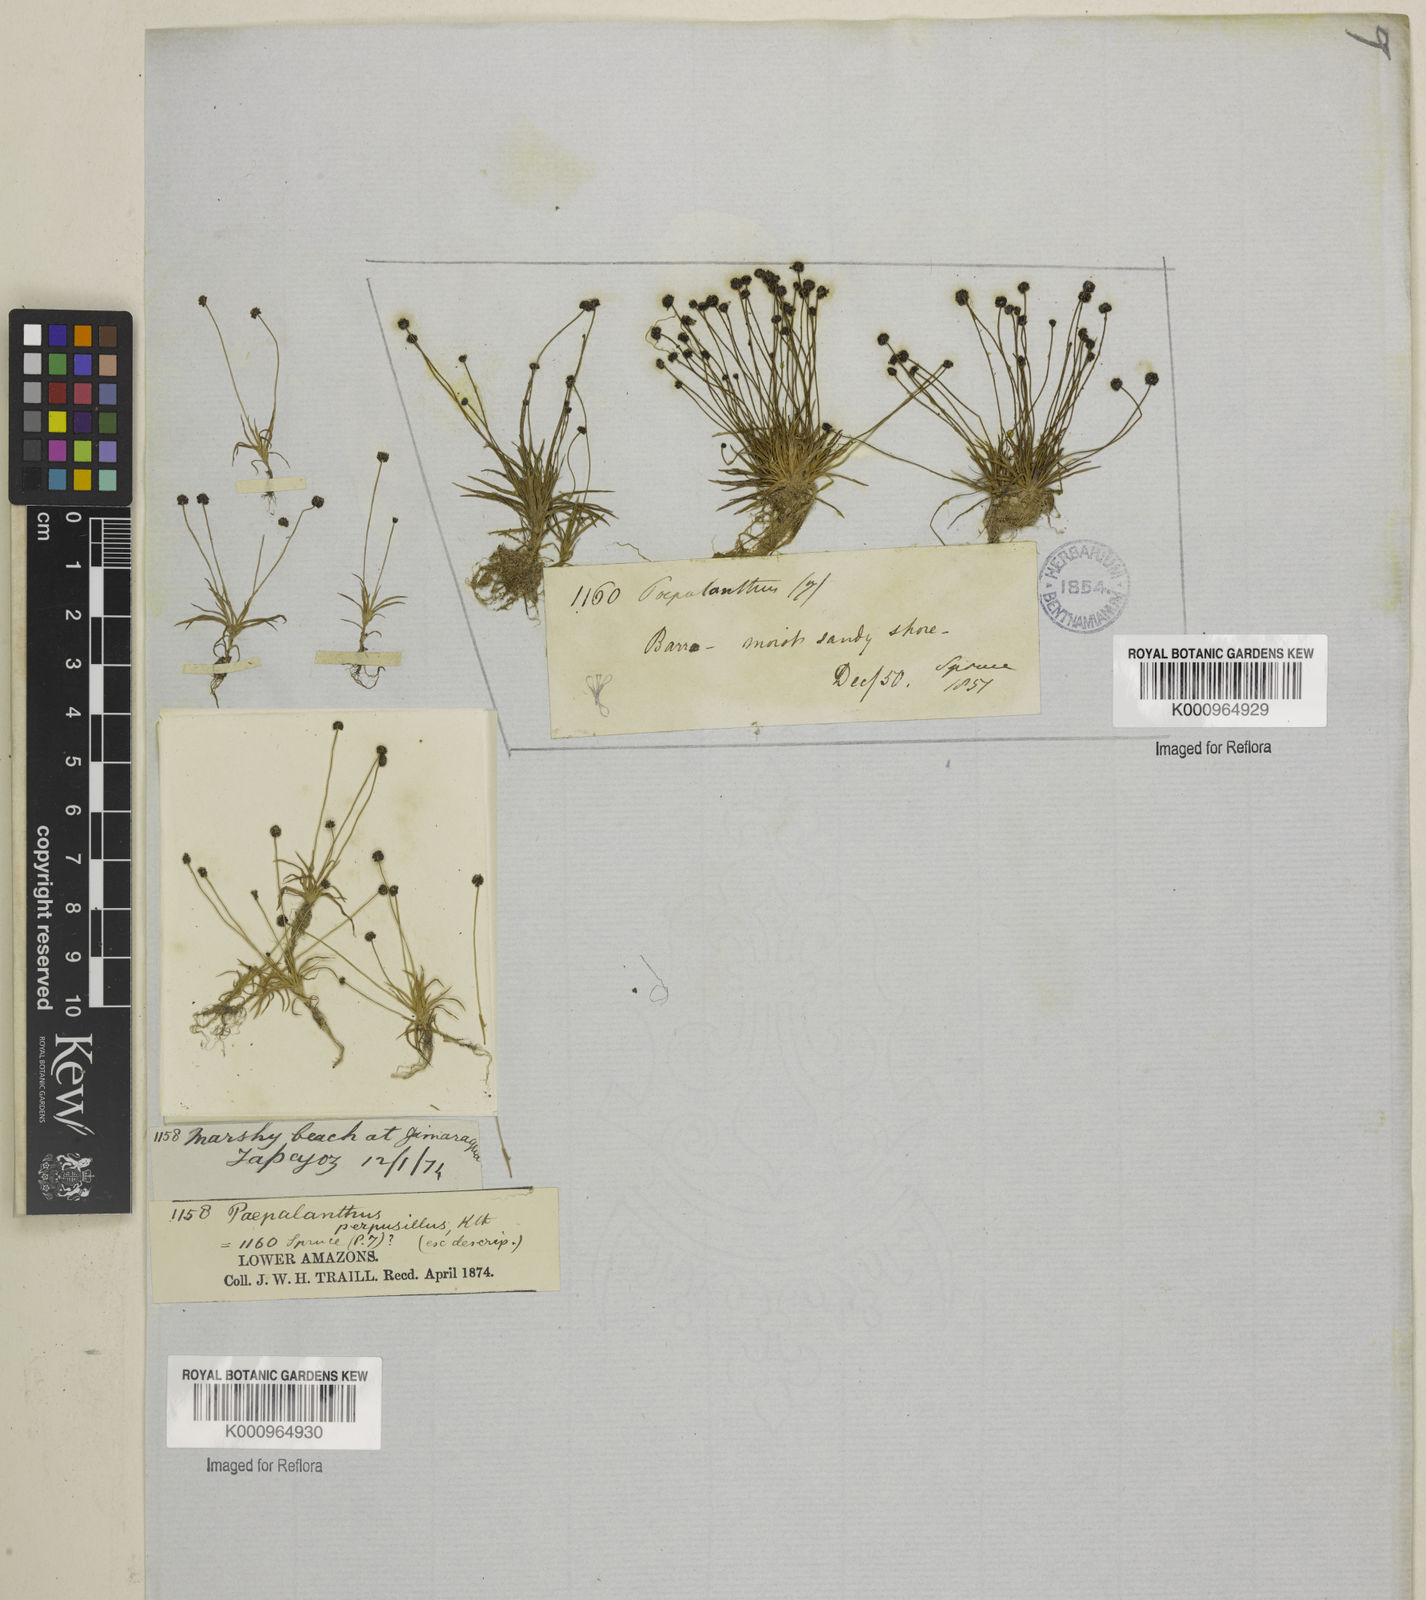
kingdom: Plantae
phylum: Tracheophyta
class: Liliopsida
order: Poales
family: Eriocaulaceae
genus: Paepalanthus
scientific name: Paepalanthus perpusillus
